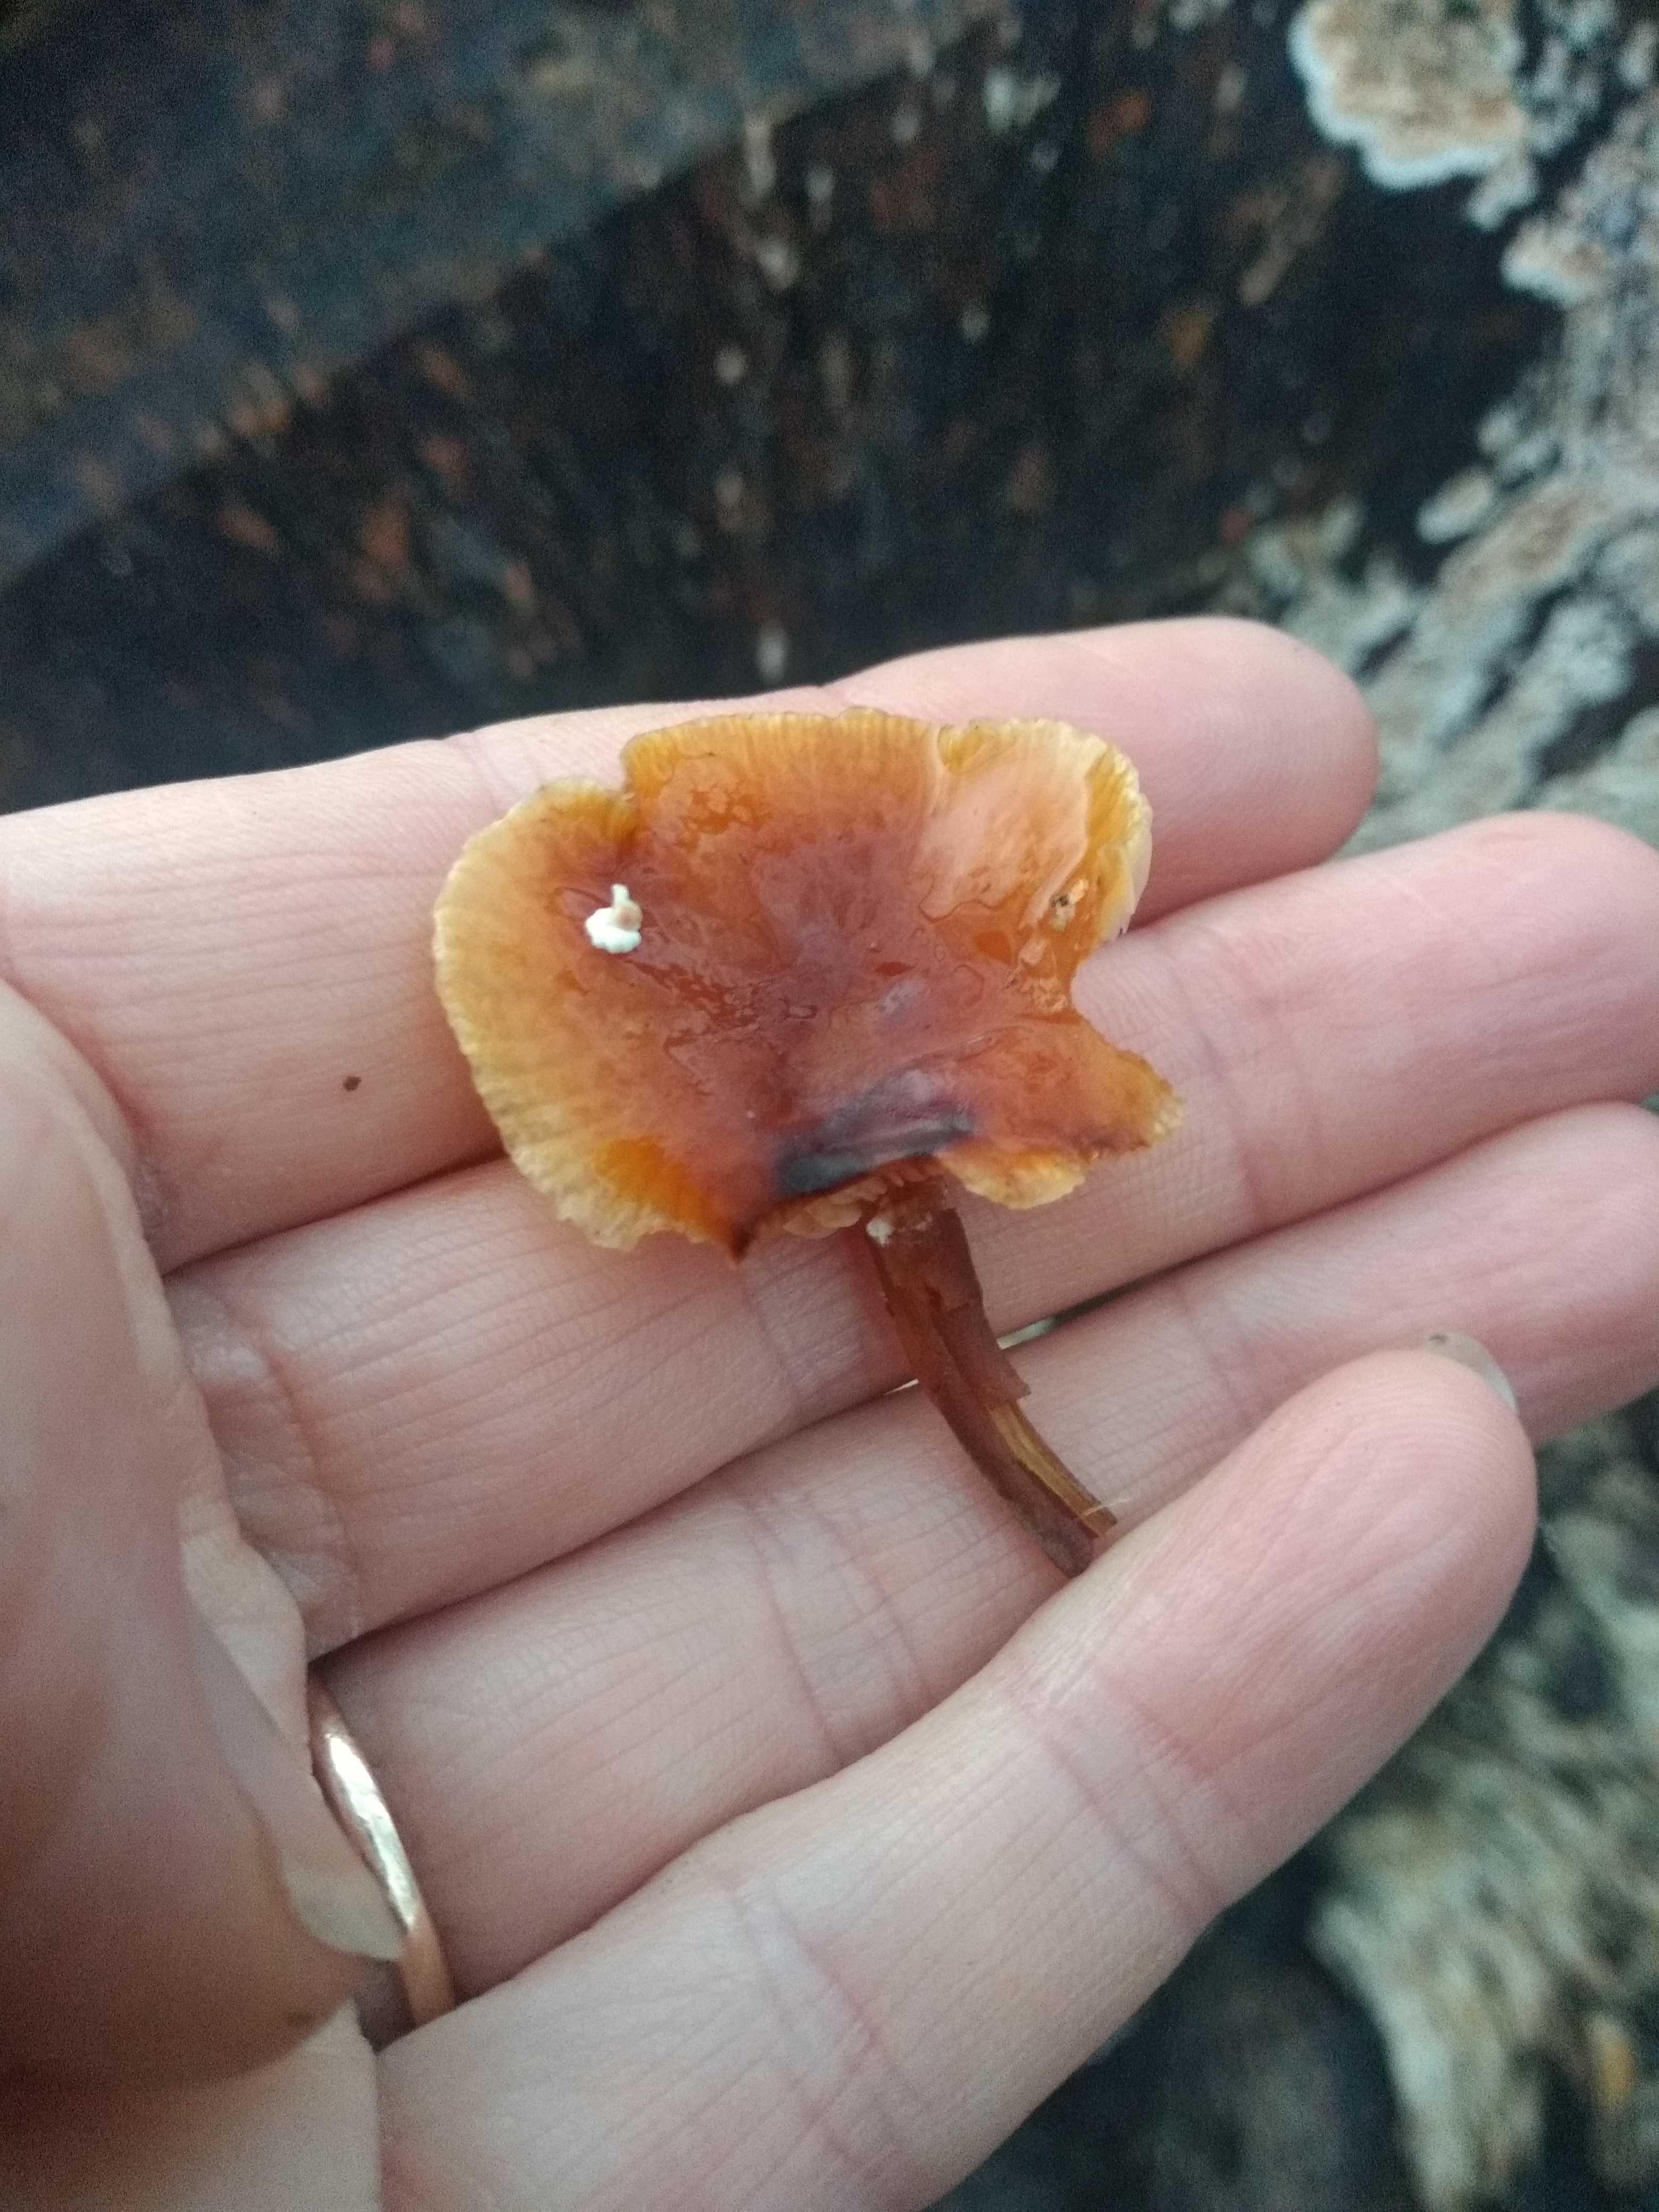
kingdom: Fungi
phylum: Basidiomycota
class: Agaricomycetes
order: Agaricales
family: Physalacriaceae
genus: Flammulina
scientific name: Flammulina velutipes
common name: gul fløjlsfod
